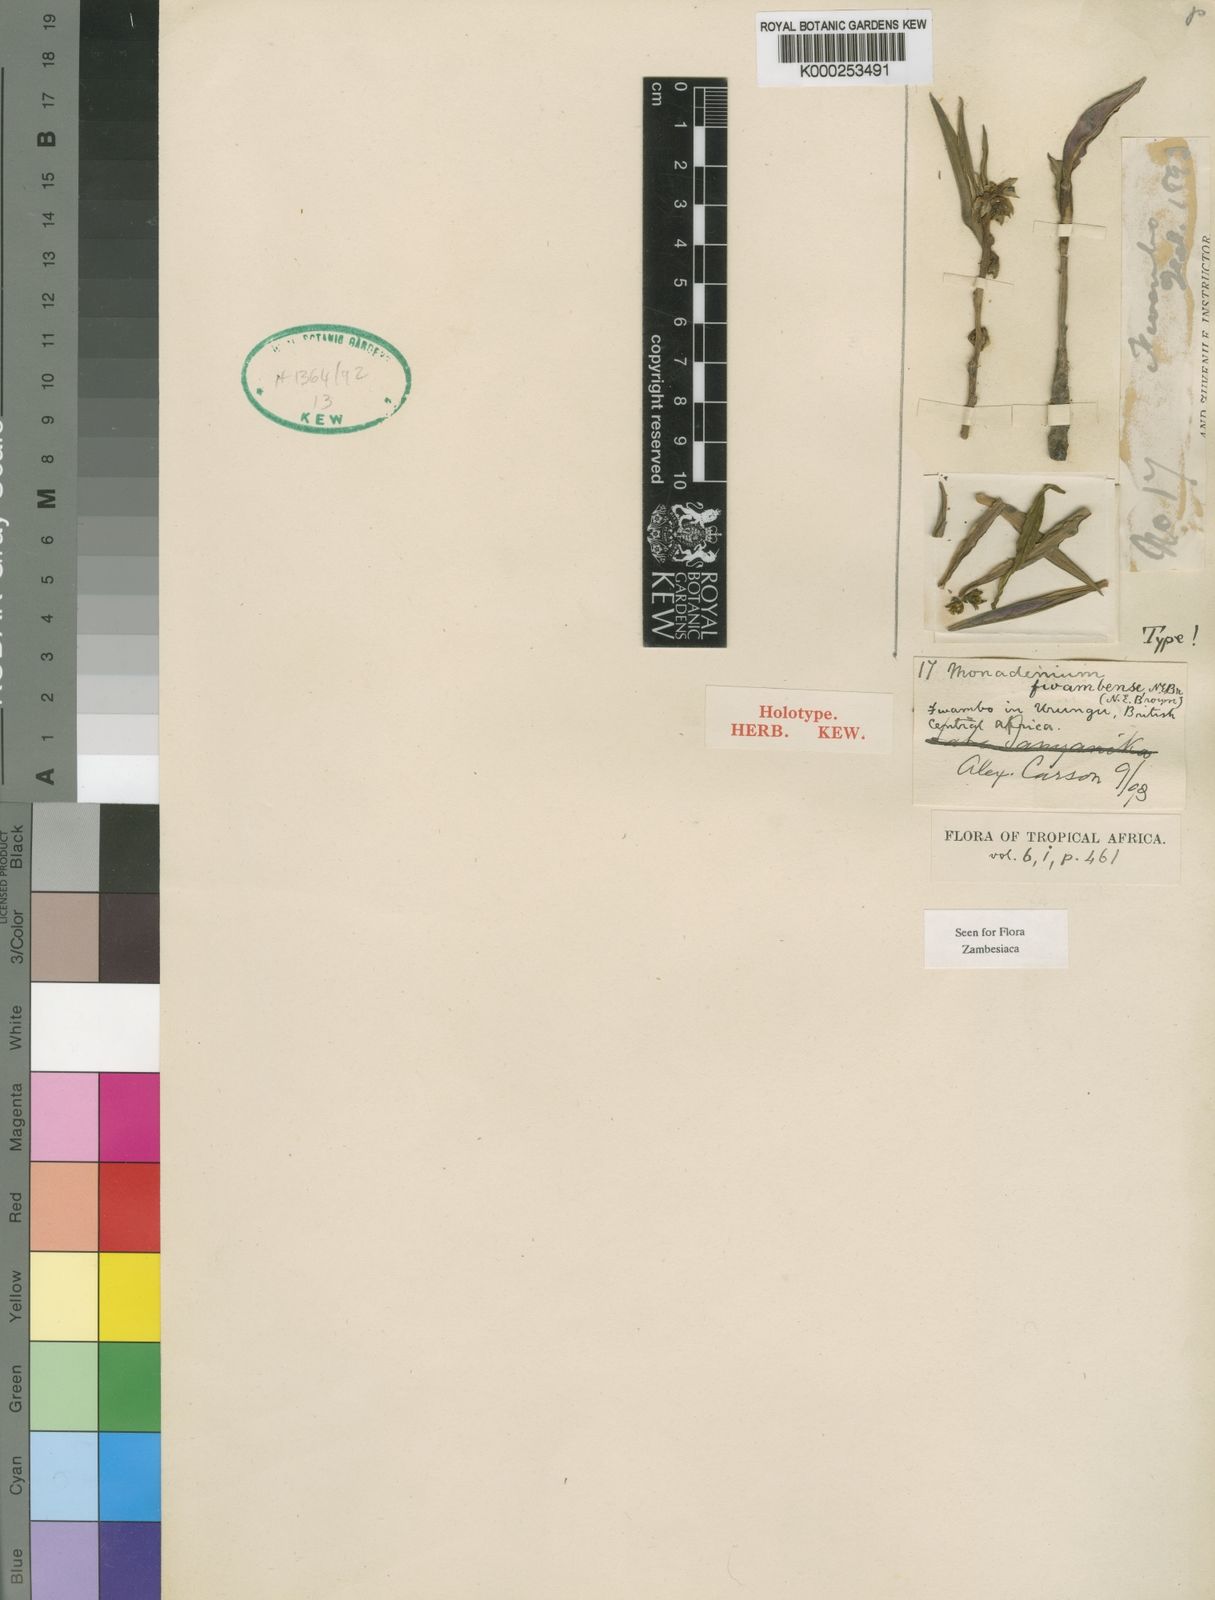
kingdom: Plantae
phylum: Tracheophyta
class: Magnoliopsida
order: Malpighiales
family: Euphorbiaceae
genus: Euphorbia
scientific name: Euphorbia fwambensis
